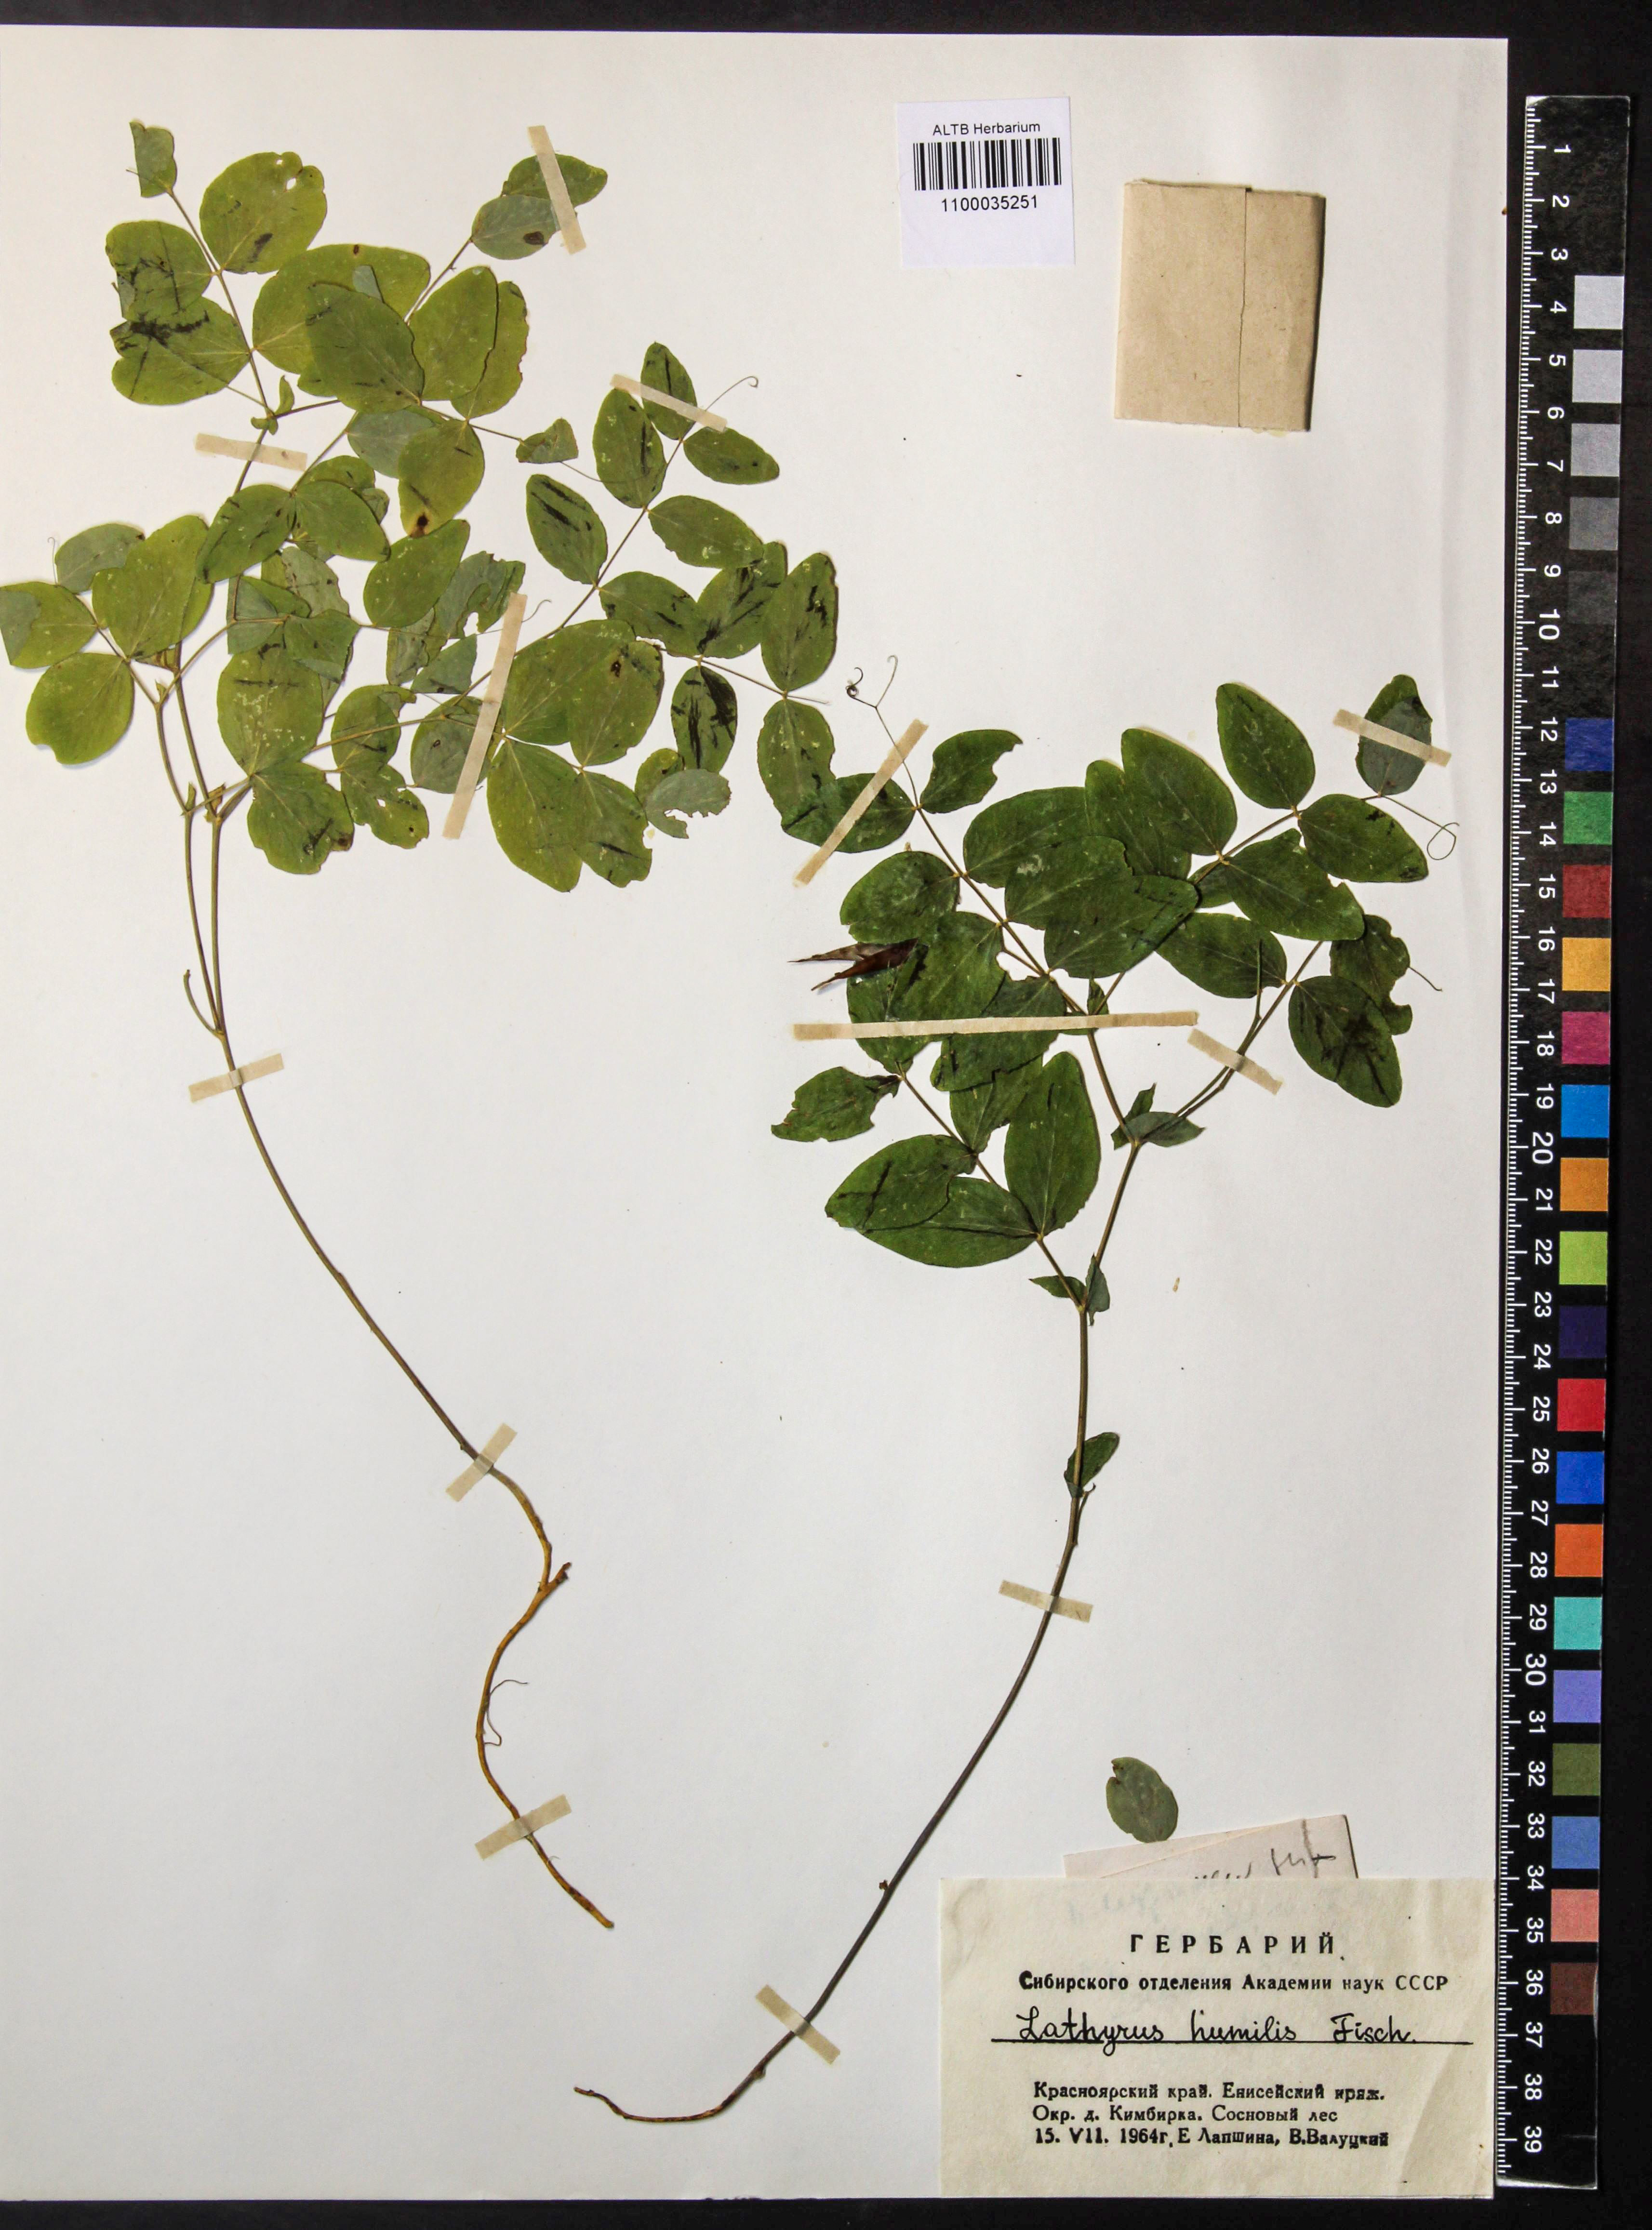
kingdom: Plantae
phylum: Tracheophyta
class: Magnoliopsida
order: Fabales
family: Fabaceae
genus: Lathyrus
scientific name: Lathyrus humilis
